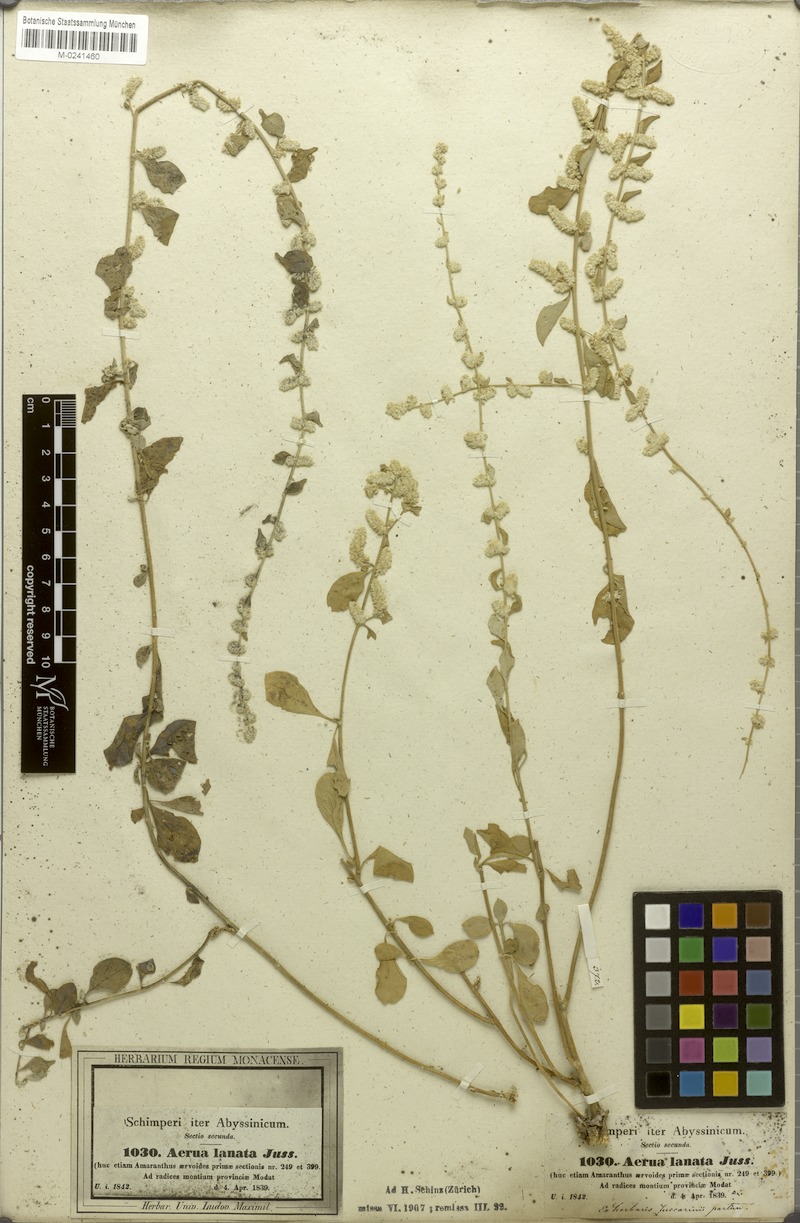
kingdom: Plantae
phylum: Tracheophyta
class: Magnoliopsida
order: Caryophyllales
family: Amaranthaceae
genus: Ouret
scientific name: Ouret lanata
